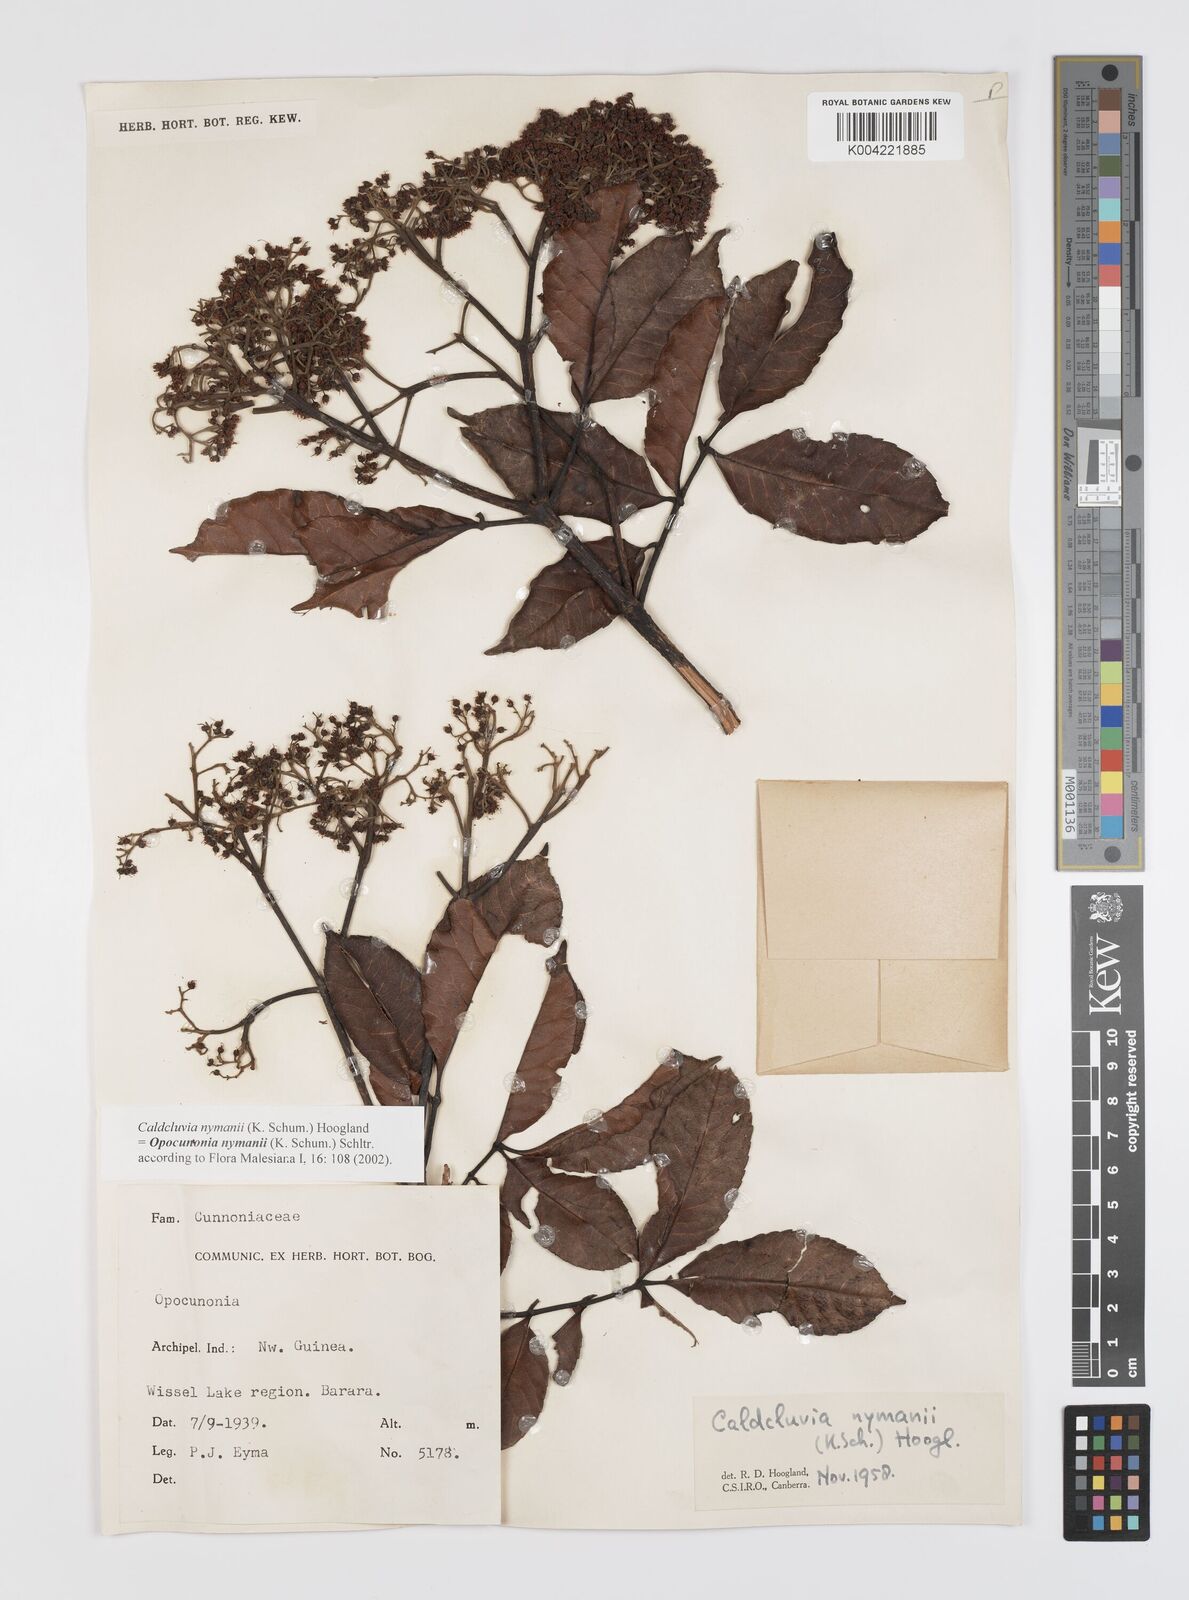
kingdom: Plantae
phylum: Tracheophyta
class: Magnoliopsida
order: Oxalidales
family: Cunoniaceae
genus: Opocunonia
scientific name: Opocunonia nymanii
